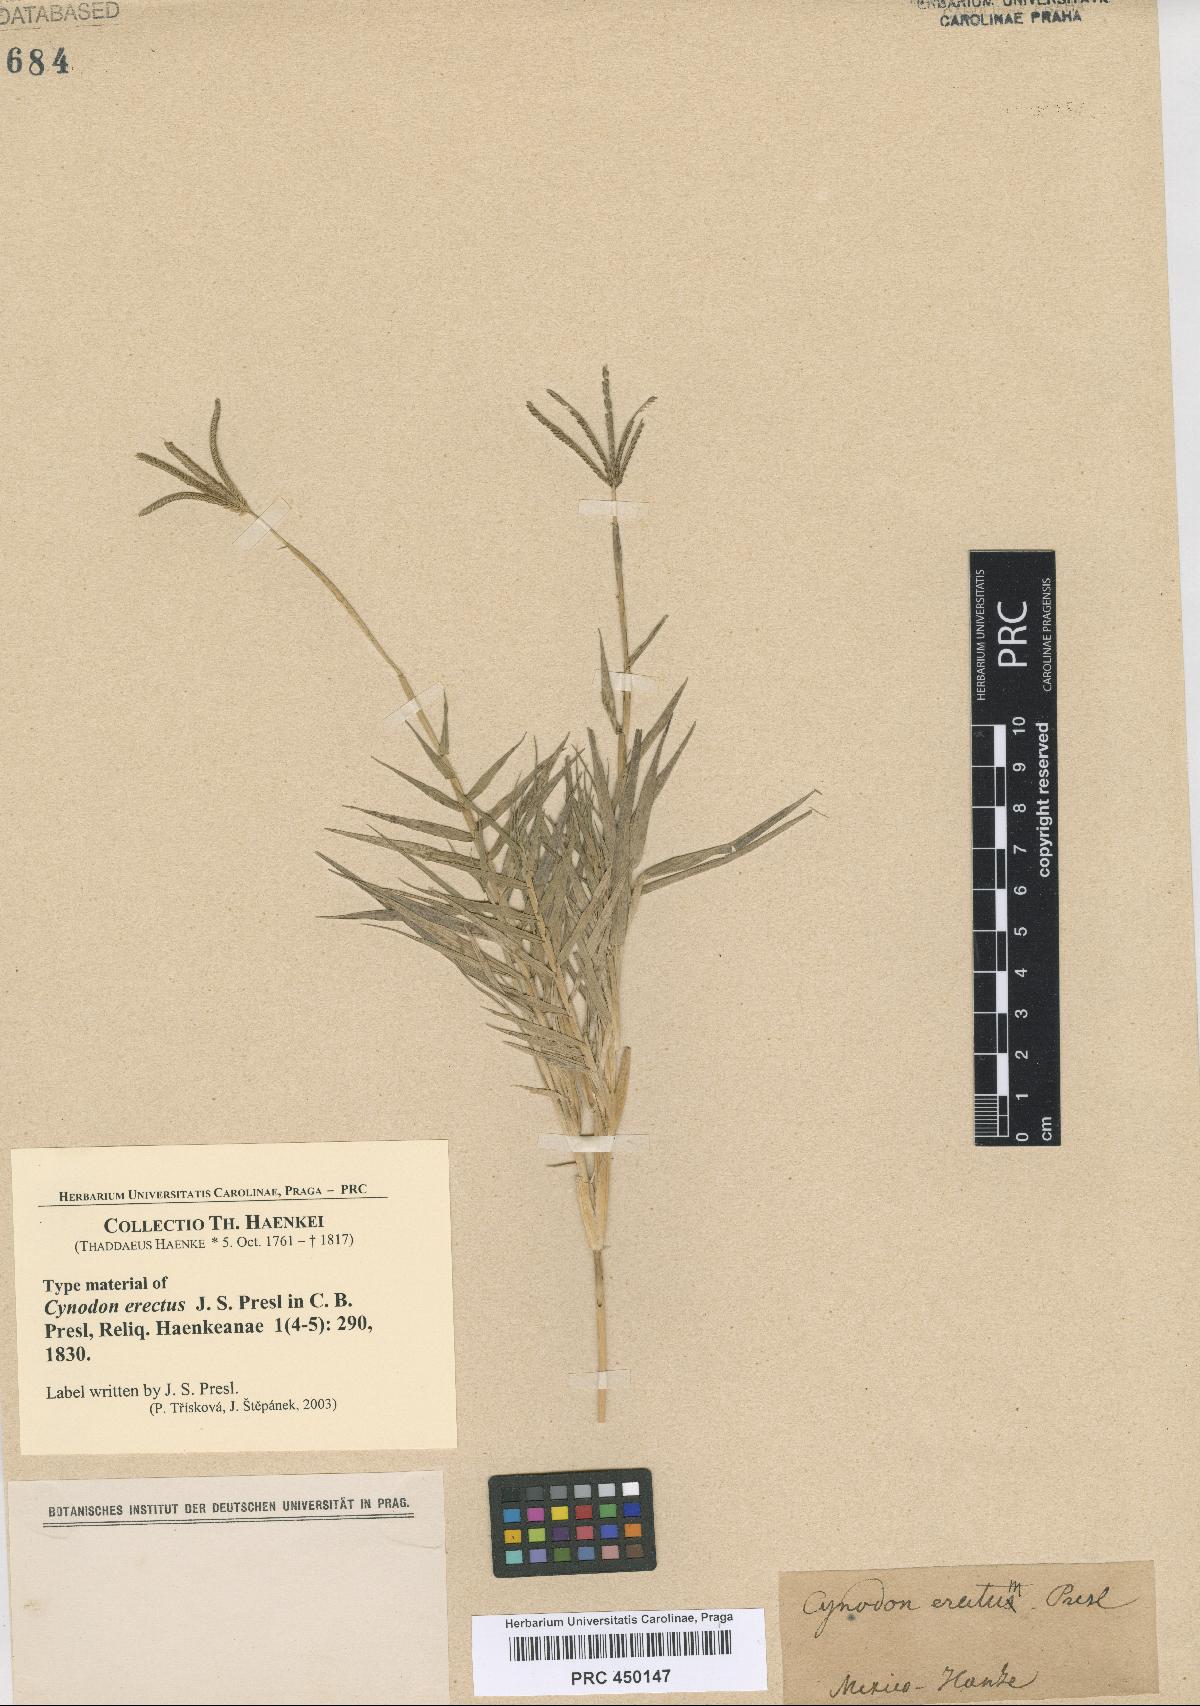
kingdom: Plantae
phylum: Tracheophyta
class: Liliopsida
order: Poales
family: Poaceae
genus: Cynodon
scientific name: Cynodon dactylon
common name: Bermuda grass
